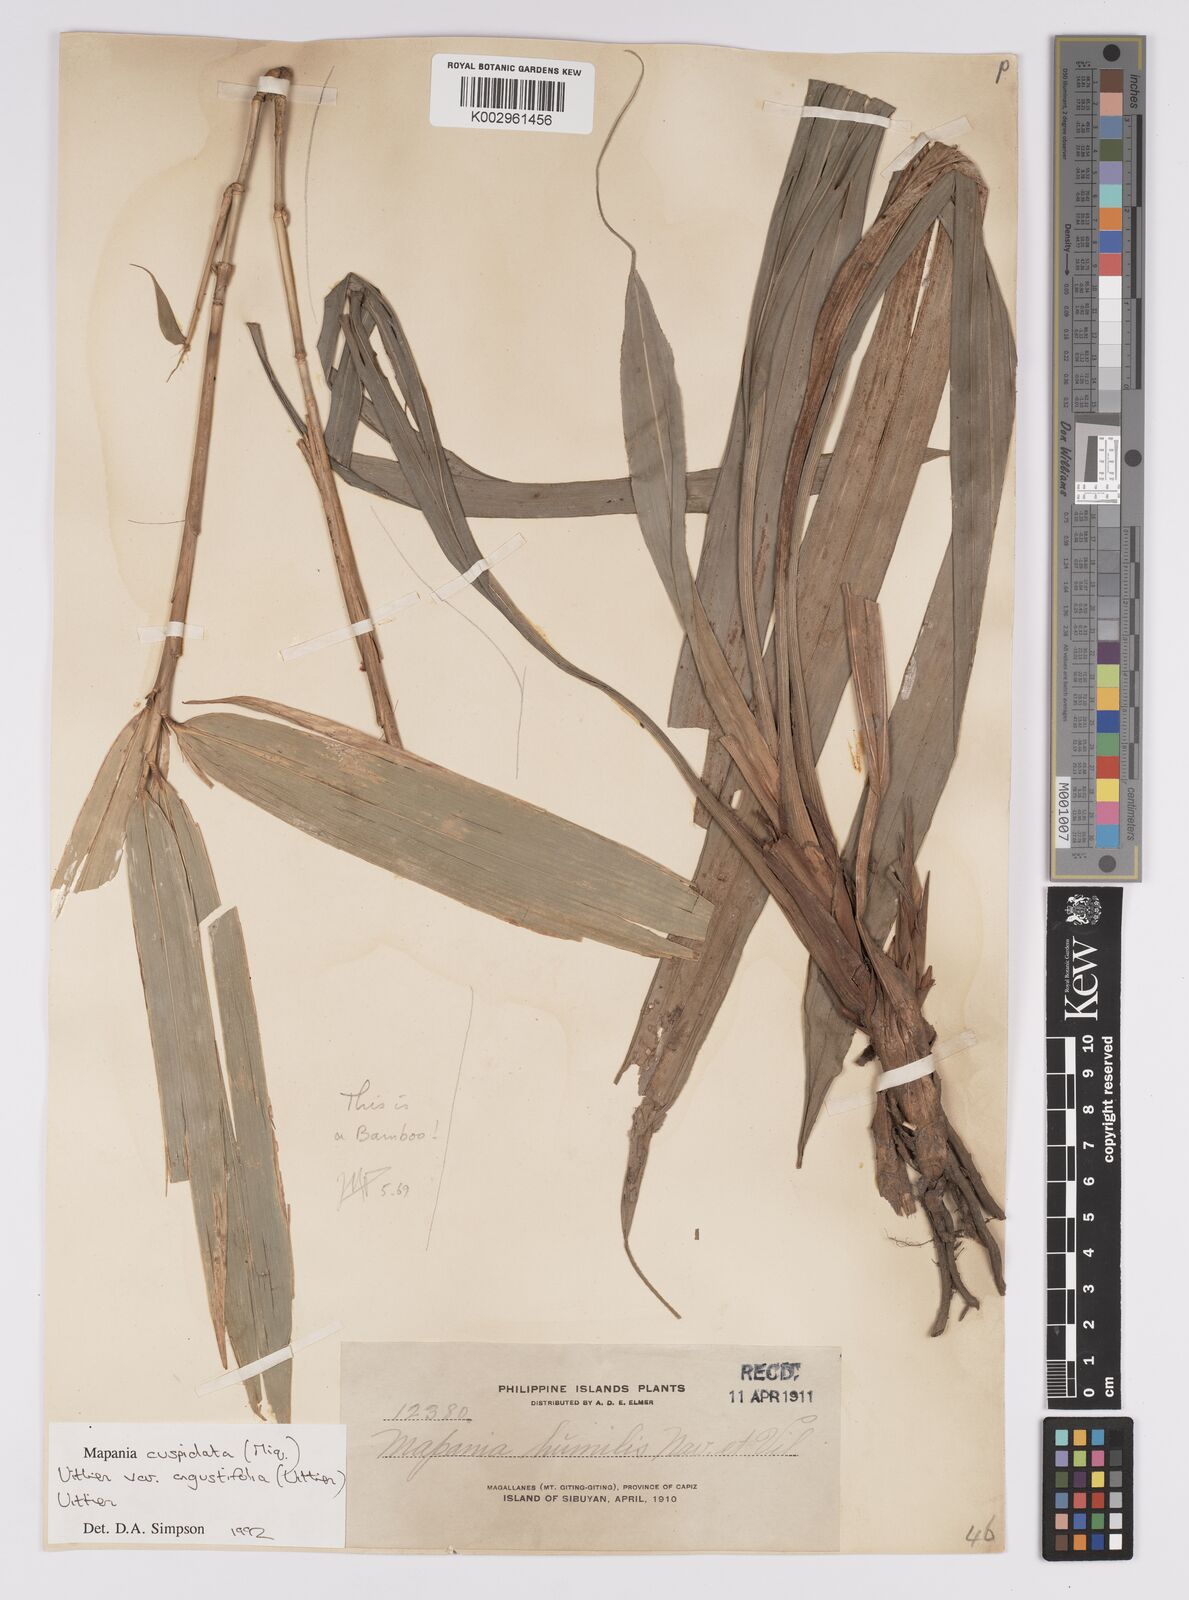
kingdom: Plantae
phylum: Tracheophyta
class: Liliopsida
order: Poales
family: Cyperaceae
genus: Mapania
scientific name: Mapania cuspidata
